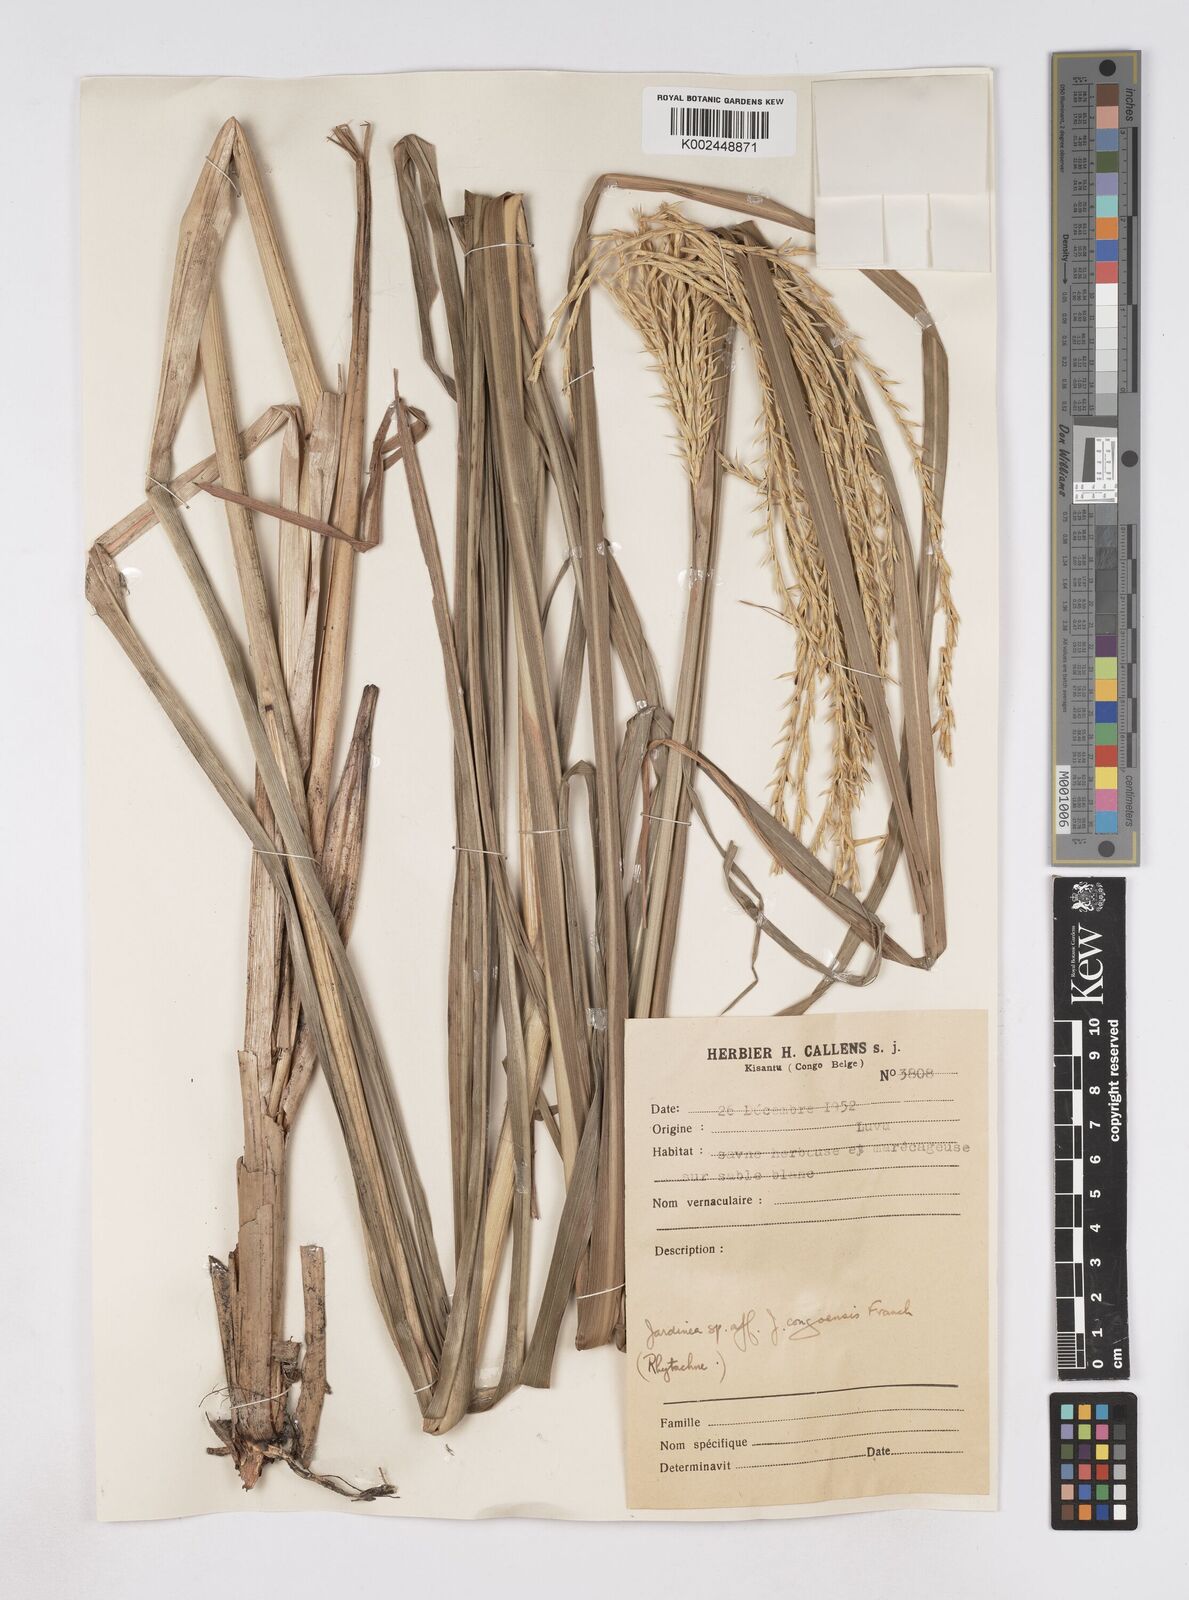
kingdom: Plantae
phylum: Tracheophyta
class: Liliopsida
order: Poales
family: Poaceae
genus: Phacelurus
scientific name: Phacelurus gabonensis
